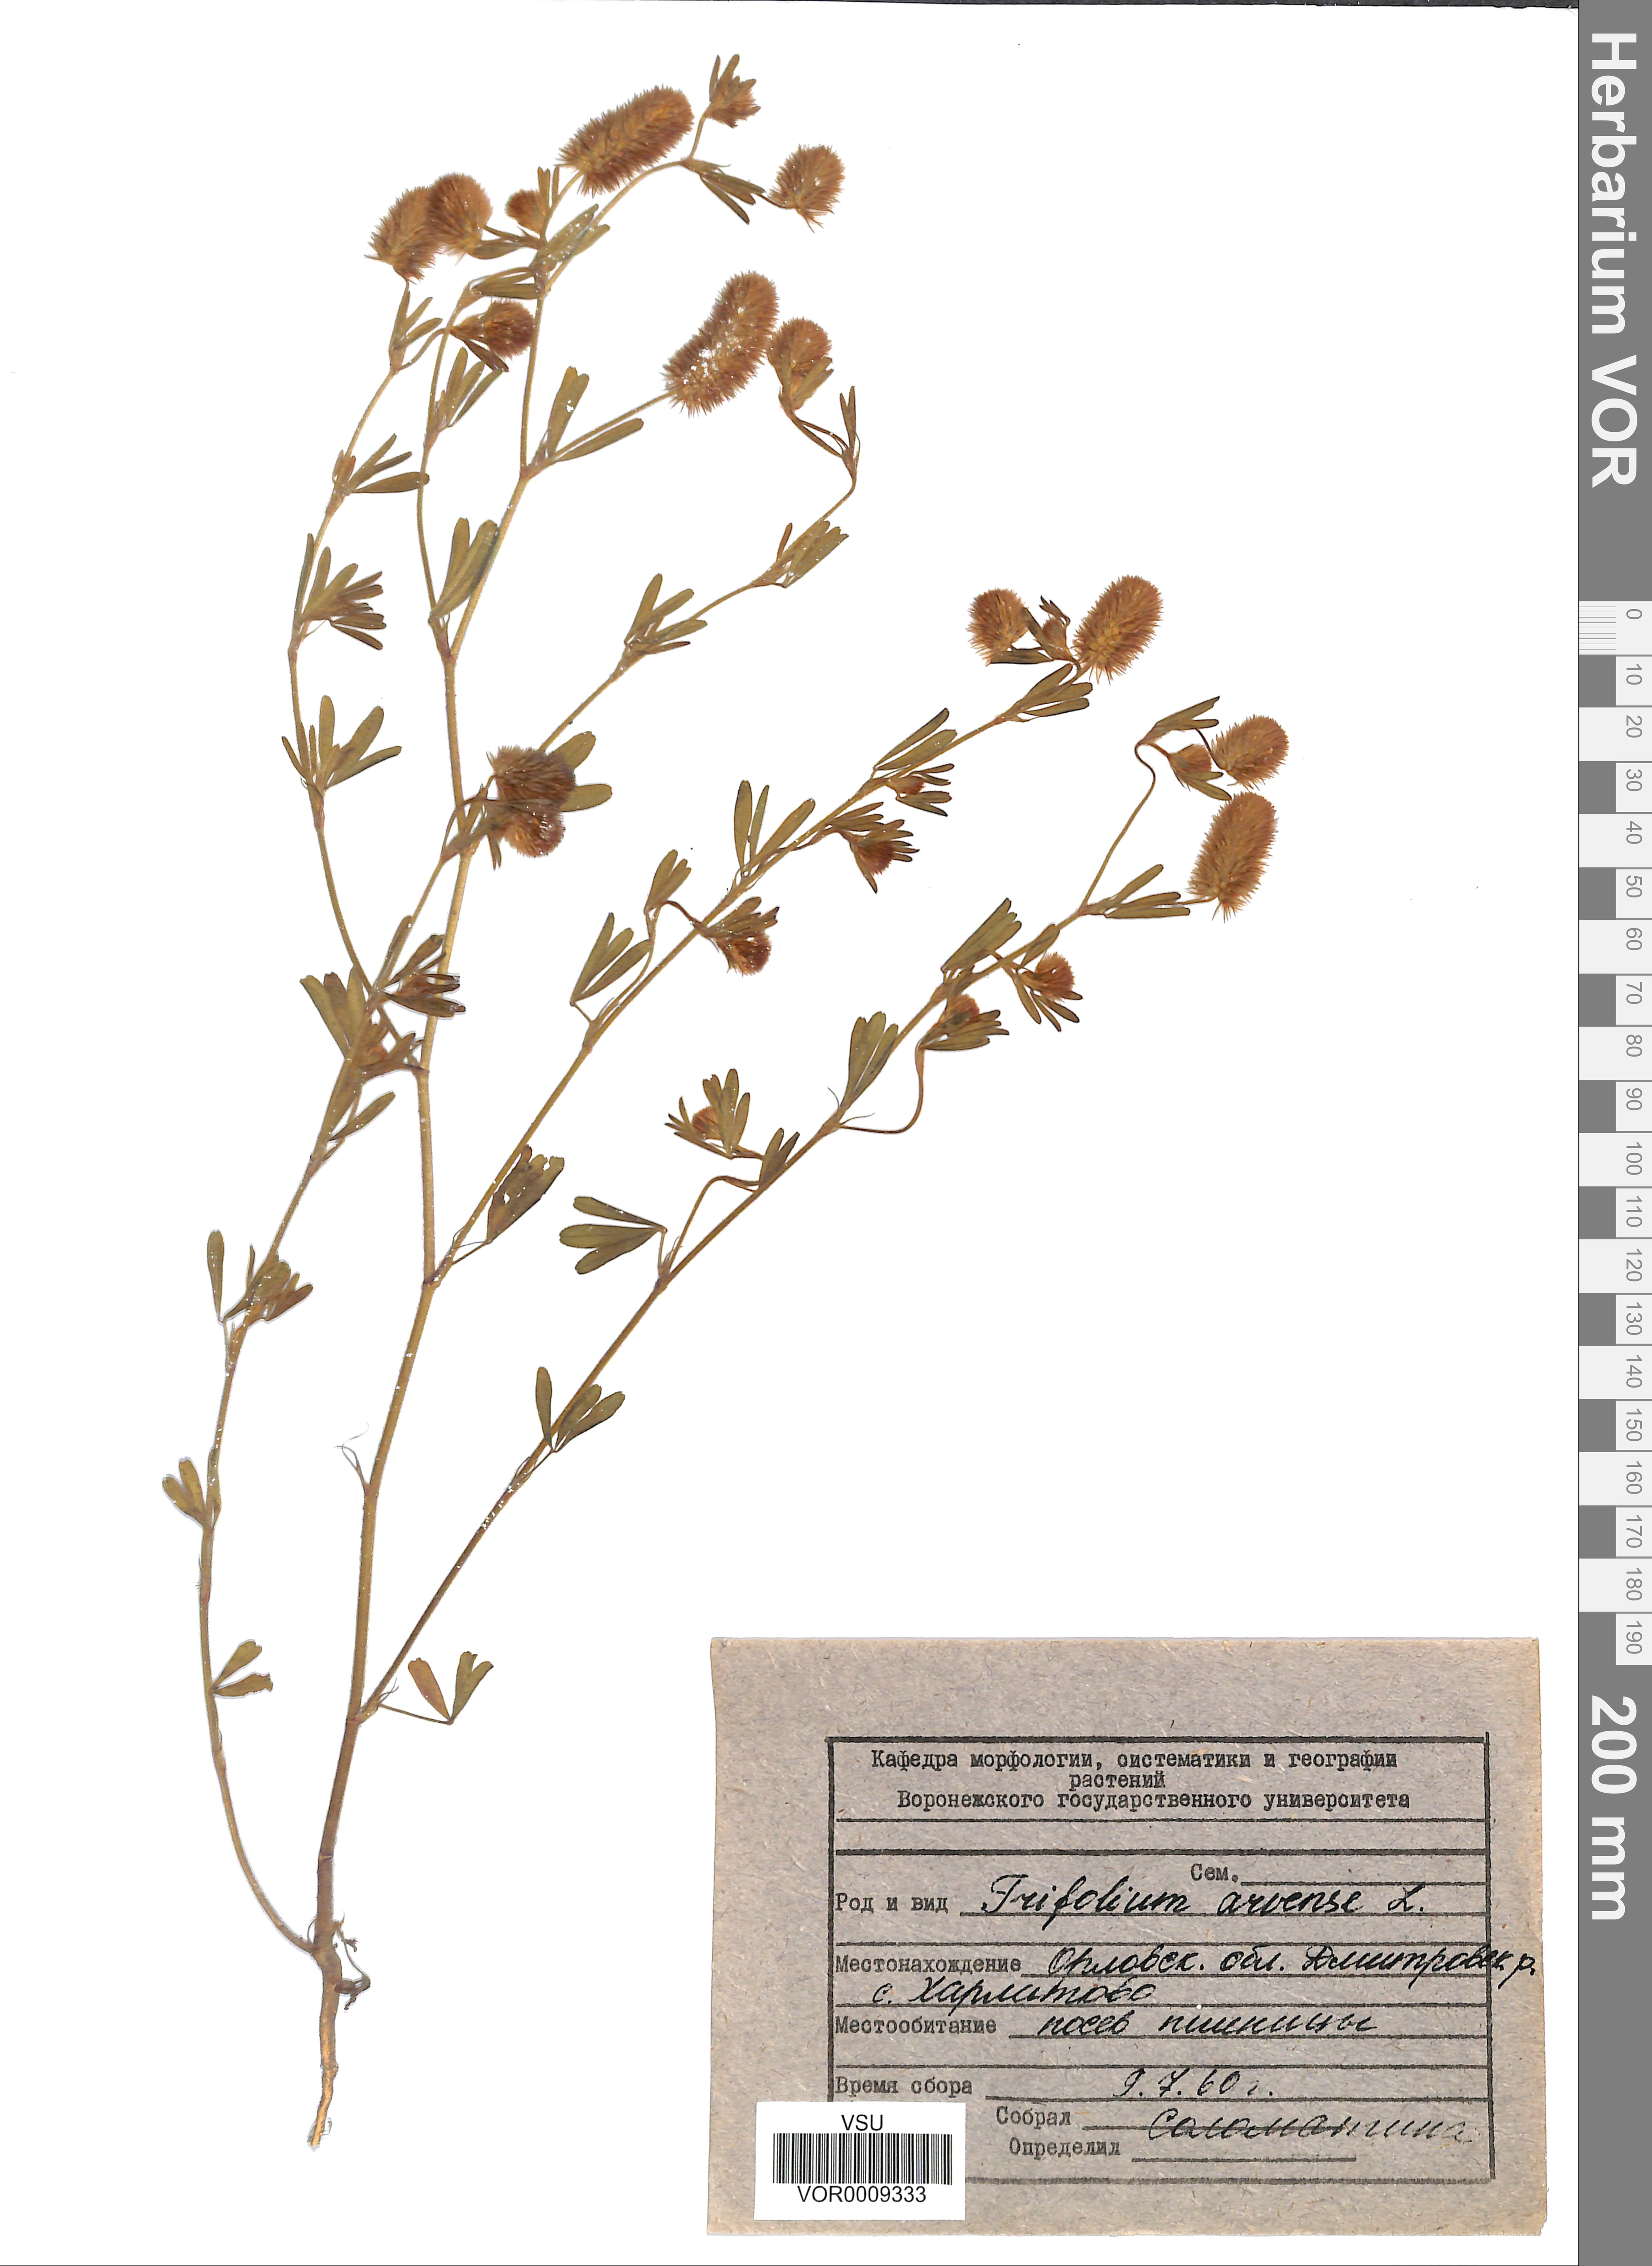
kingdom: Plantae
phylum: Tracheophyta
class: Magnoliopsida
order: Fabales
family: Fabaceae
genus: Trifolium
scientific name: Trifolium arvense
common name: Hare's-foot clover
